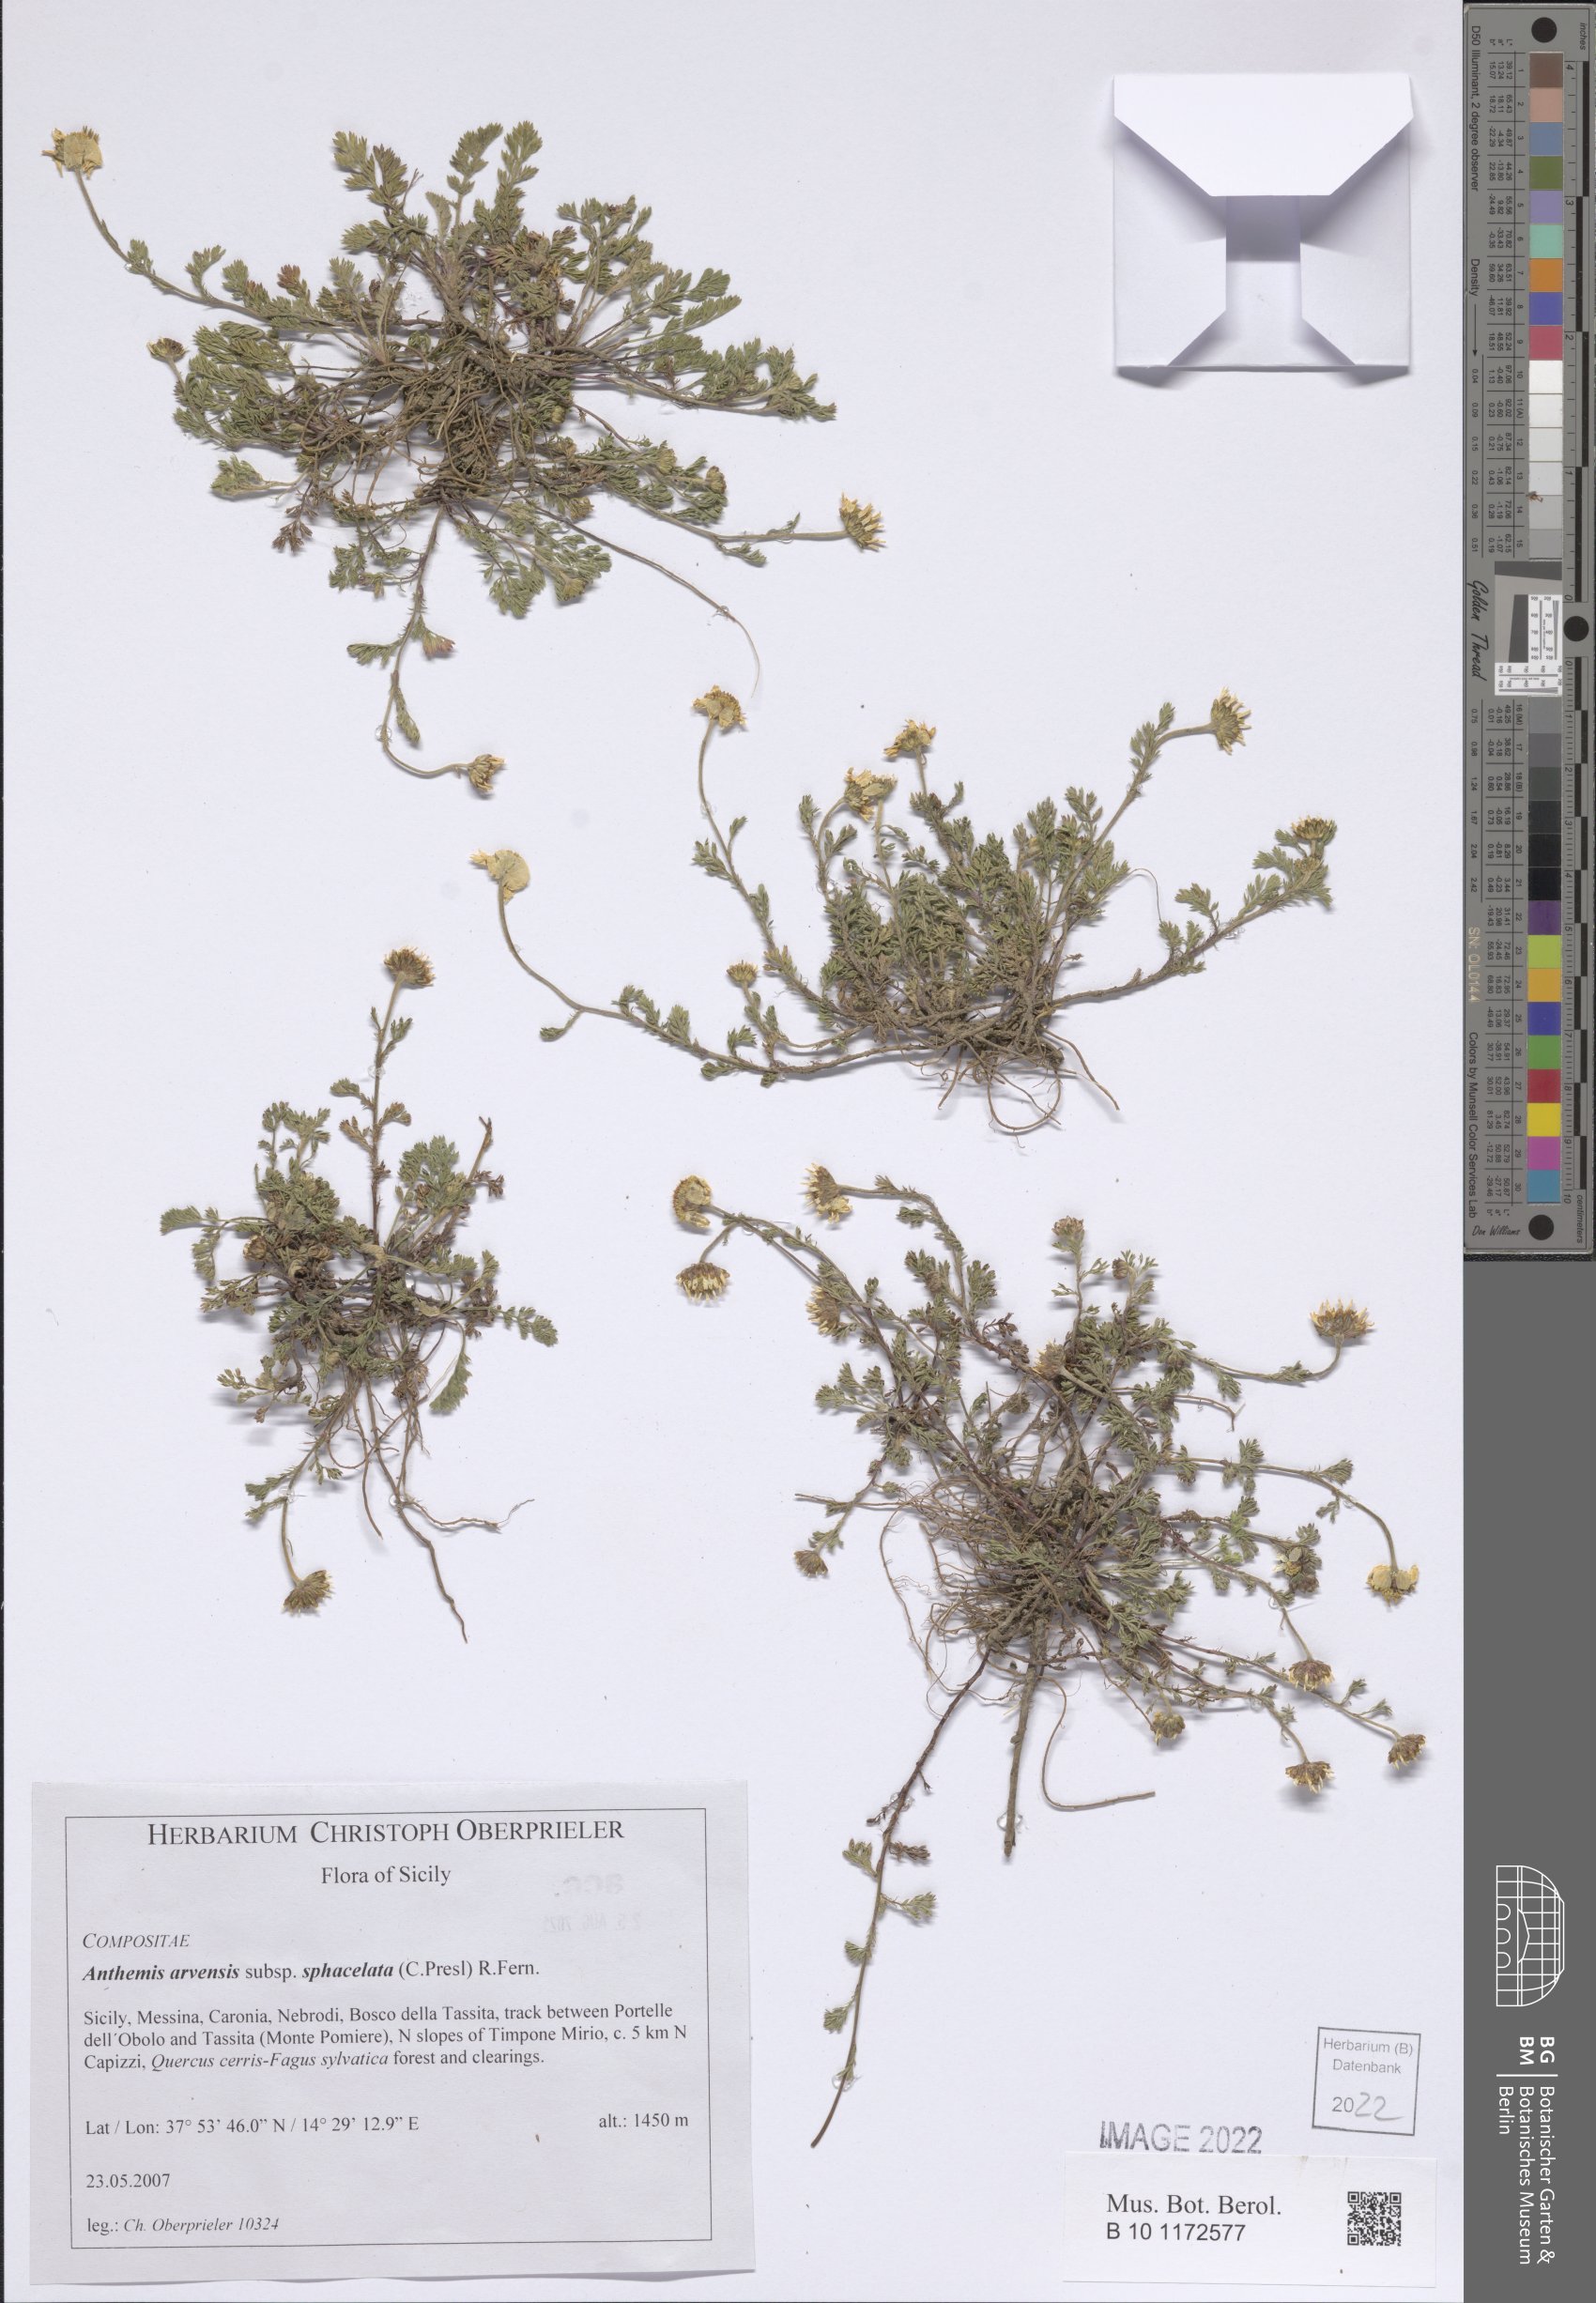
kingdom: Plantae
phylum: Tracheophyta
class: Magnoliopsida
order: Asterales
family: Asteraceae
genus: Anthemis
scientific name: Anthemis arvensis
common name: Corn chamomile
